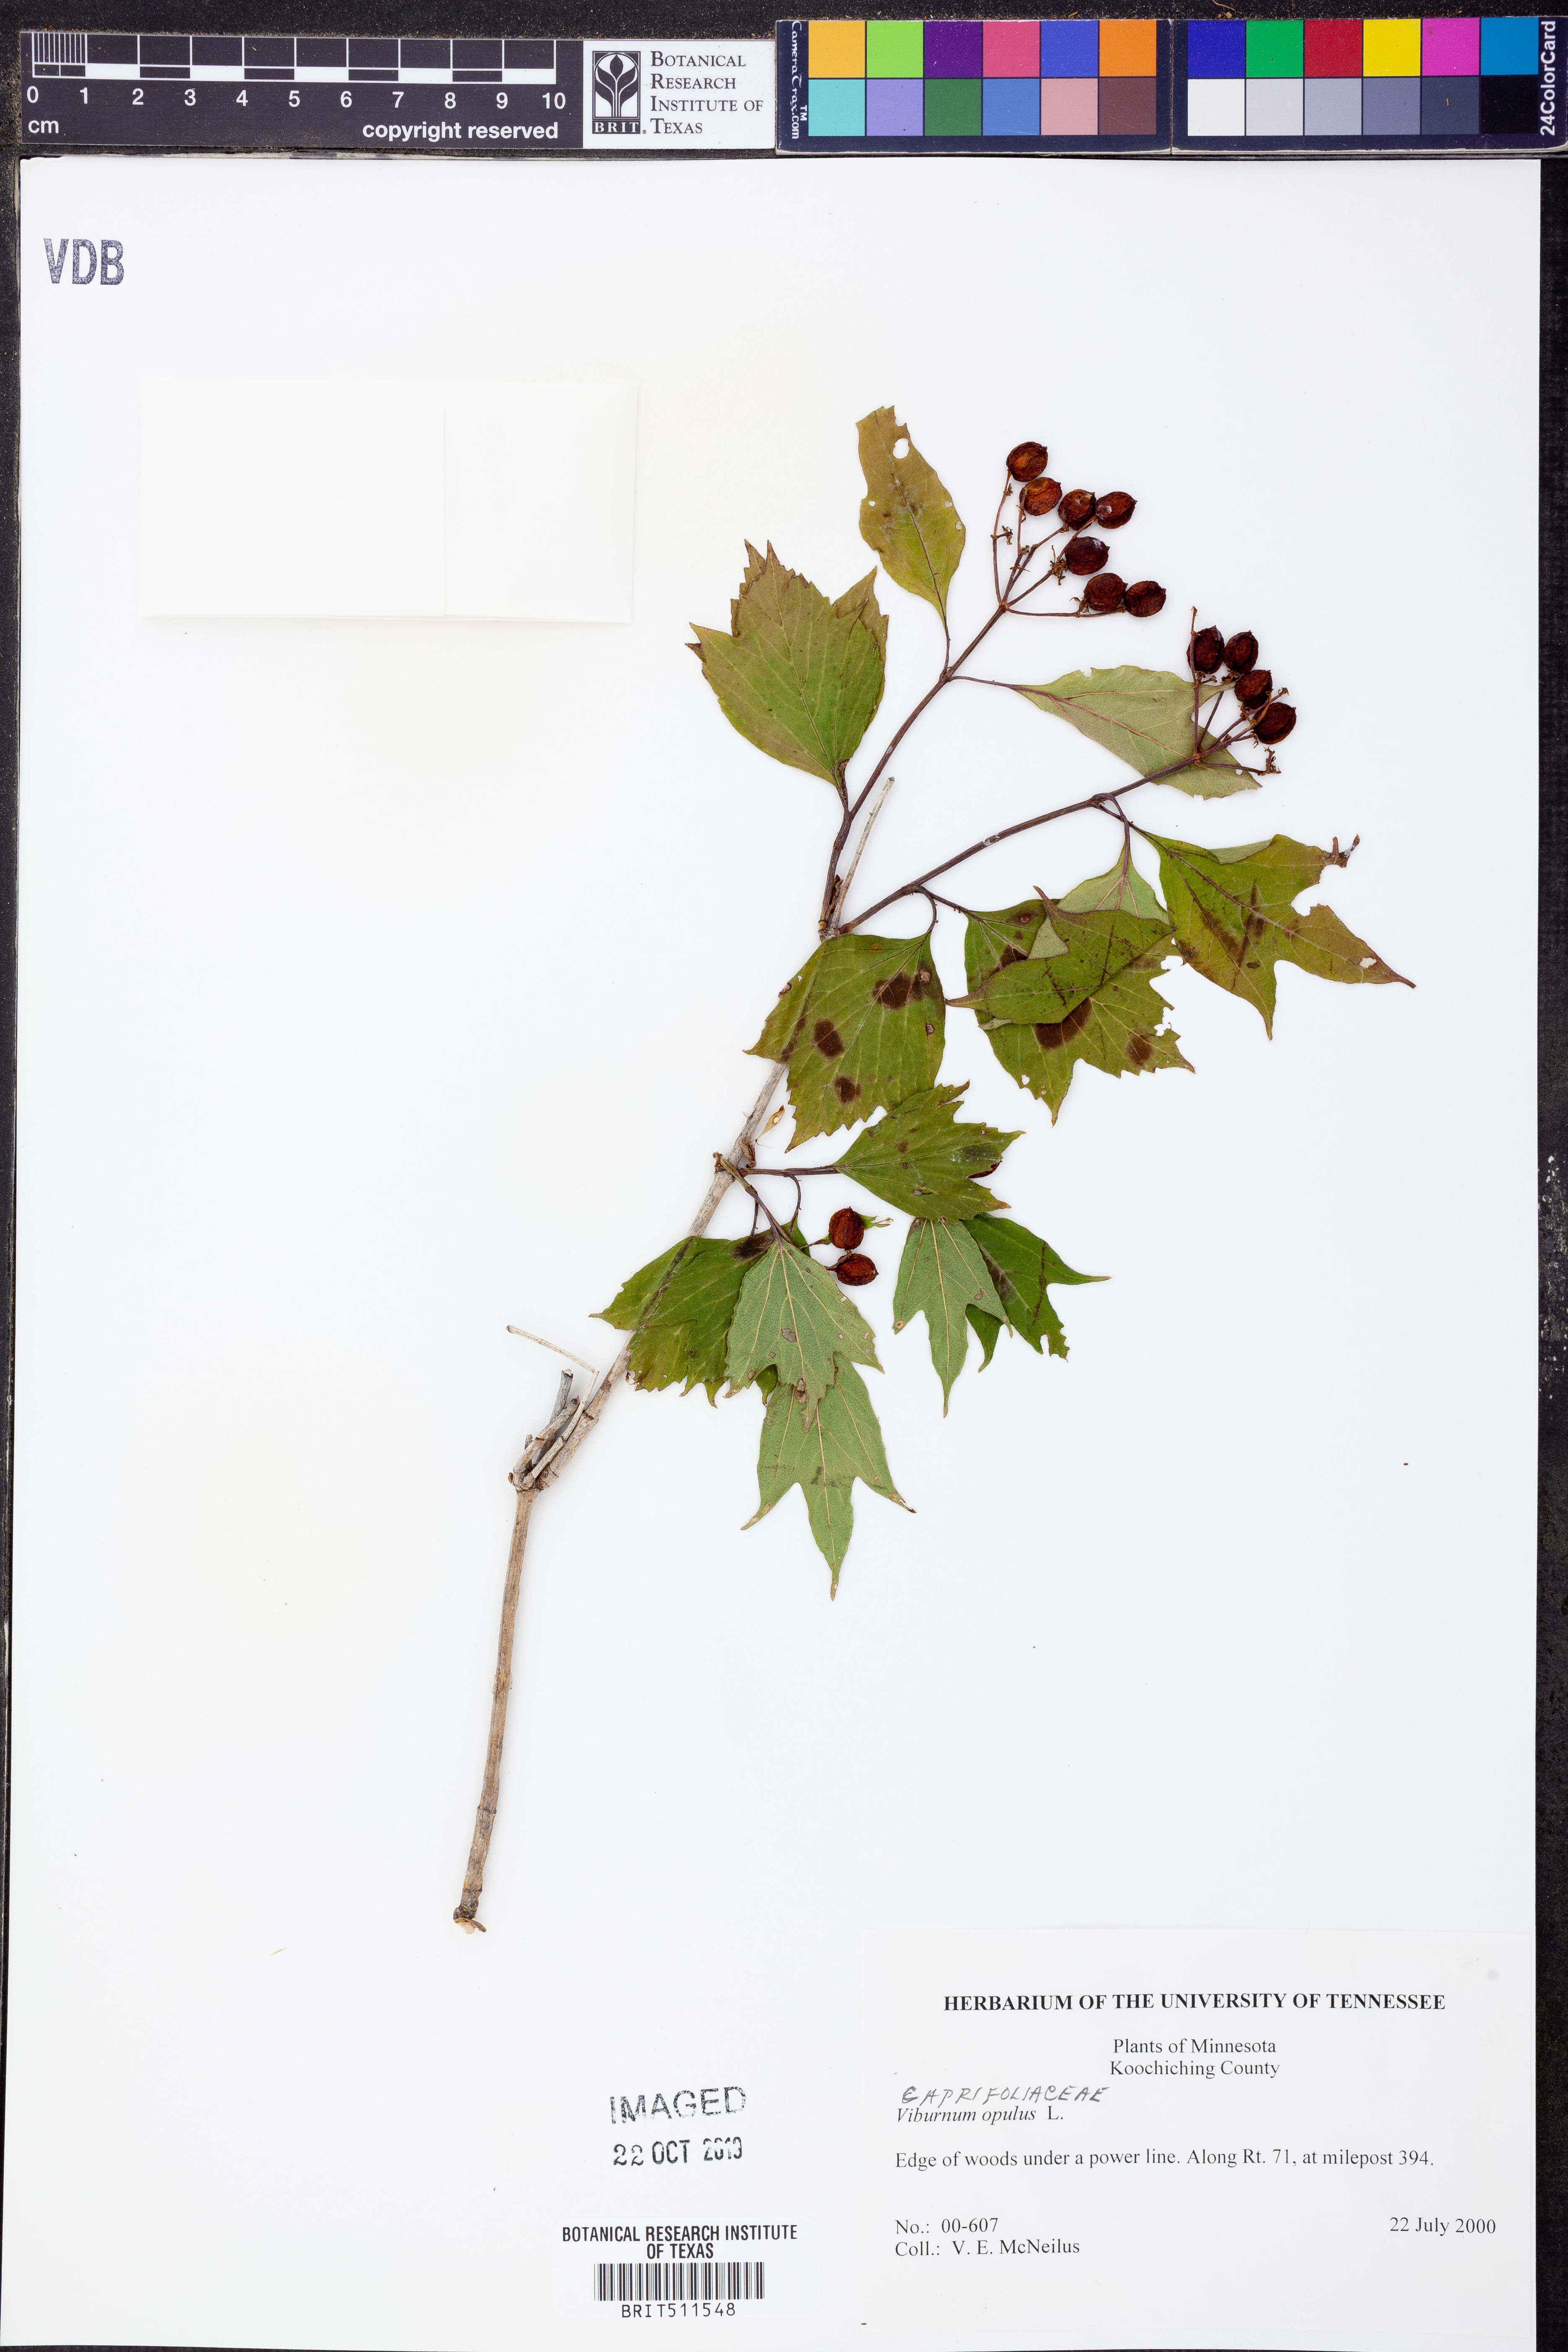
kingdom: Plantae
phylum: Tracheophyta
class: Magnoliopsida
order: Dipsacales
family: Viburnaceae
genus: Viburnum
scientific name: Viburnum opulus
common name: Guelder-rose
